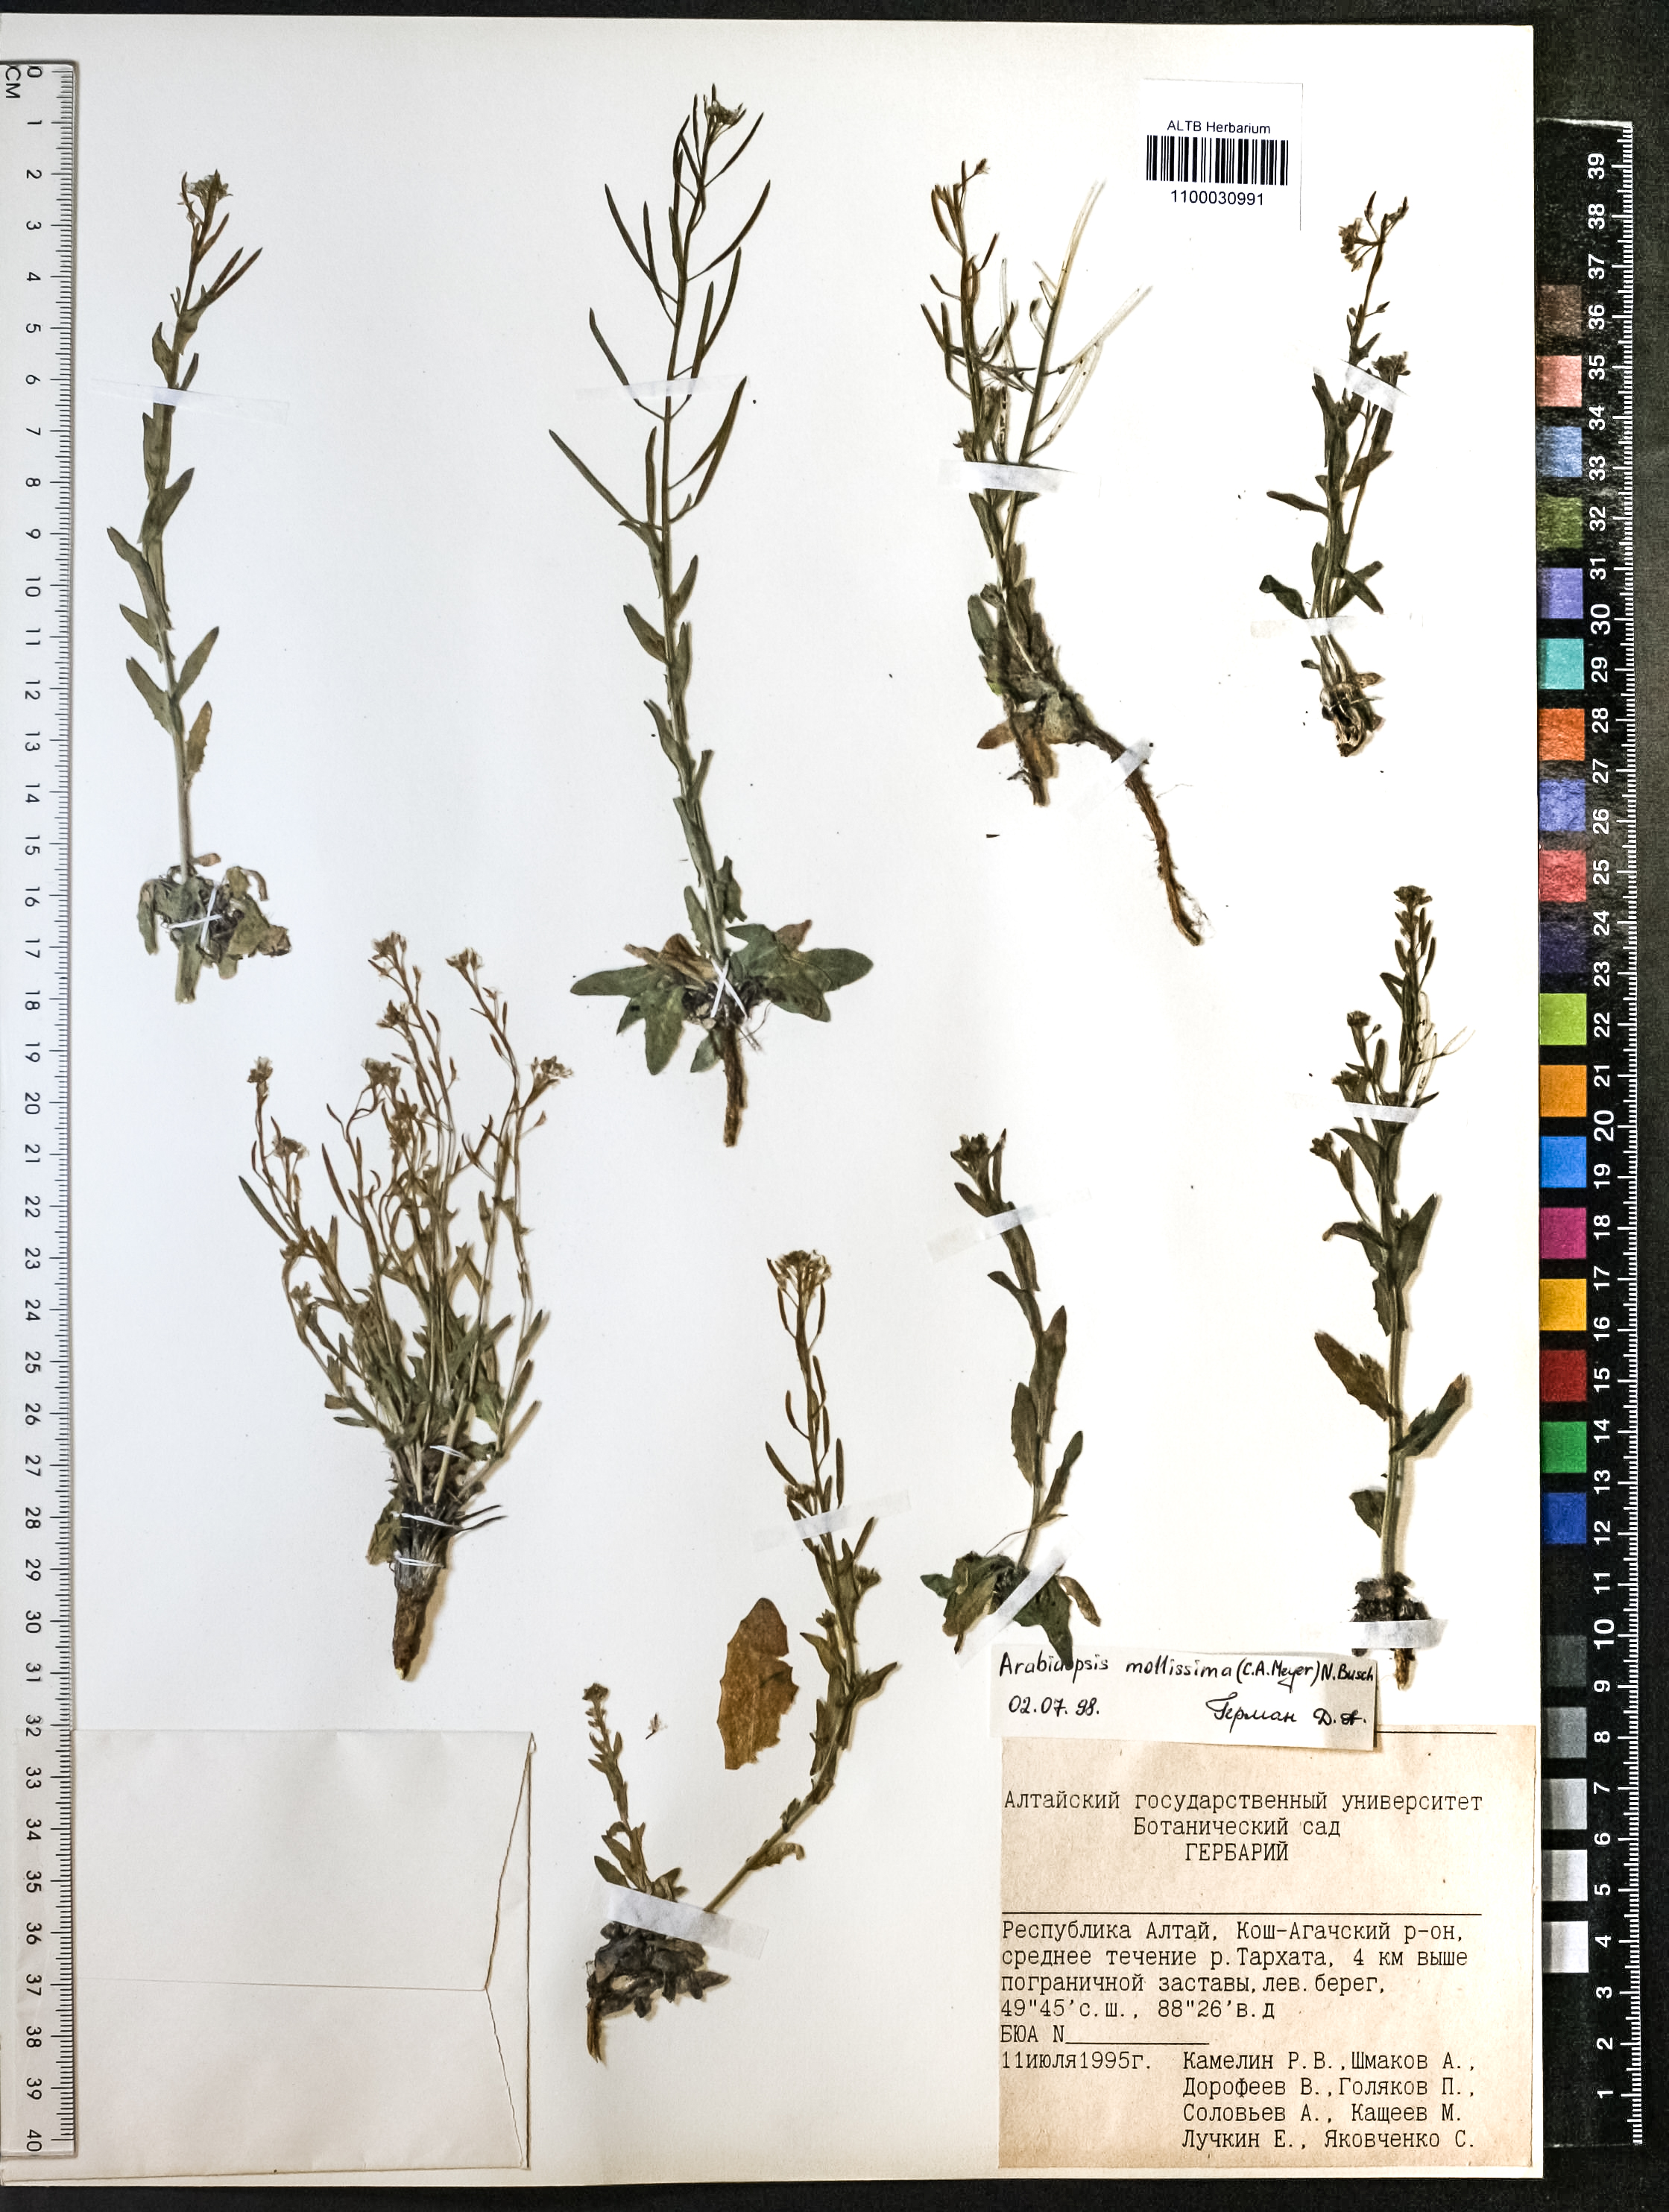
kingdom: Plantae
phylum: Tracheophyta
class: Magnoliopsida
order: Brassicales
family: Brassicaceae
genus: Crucihimalaya
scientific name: Crucihimalaya mollissima
